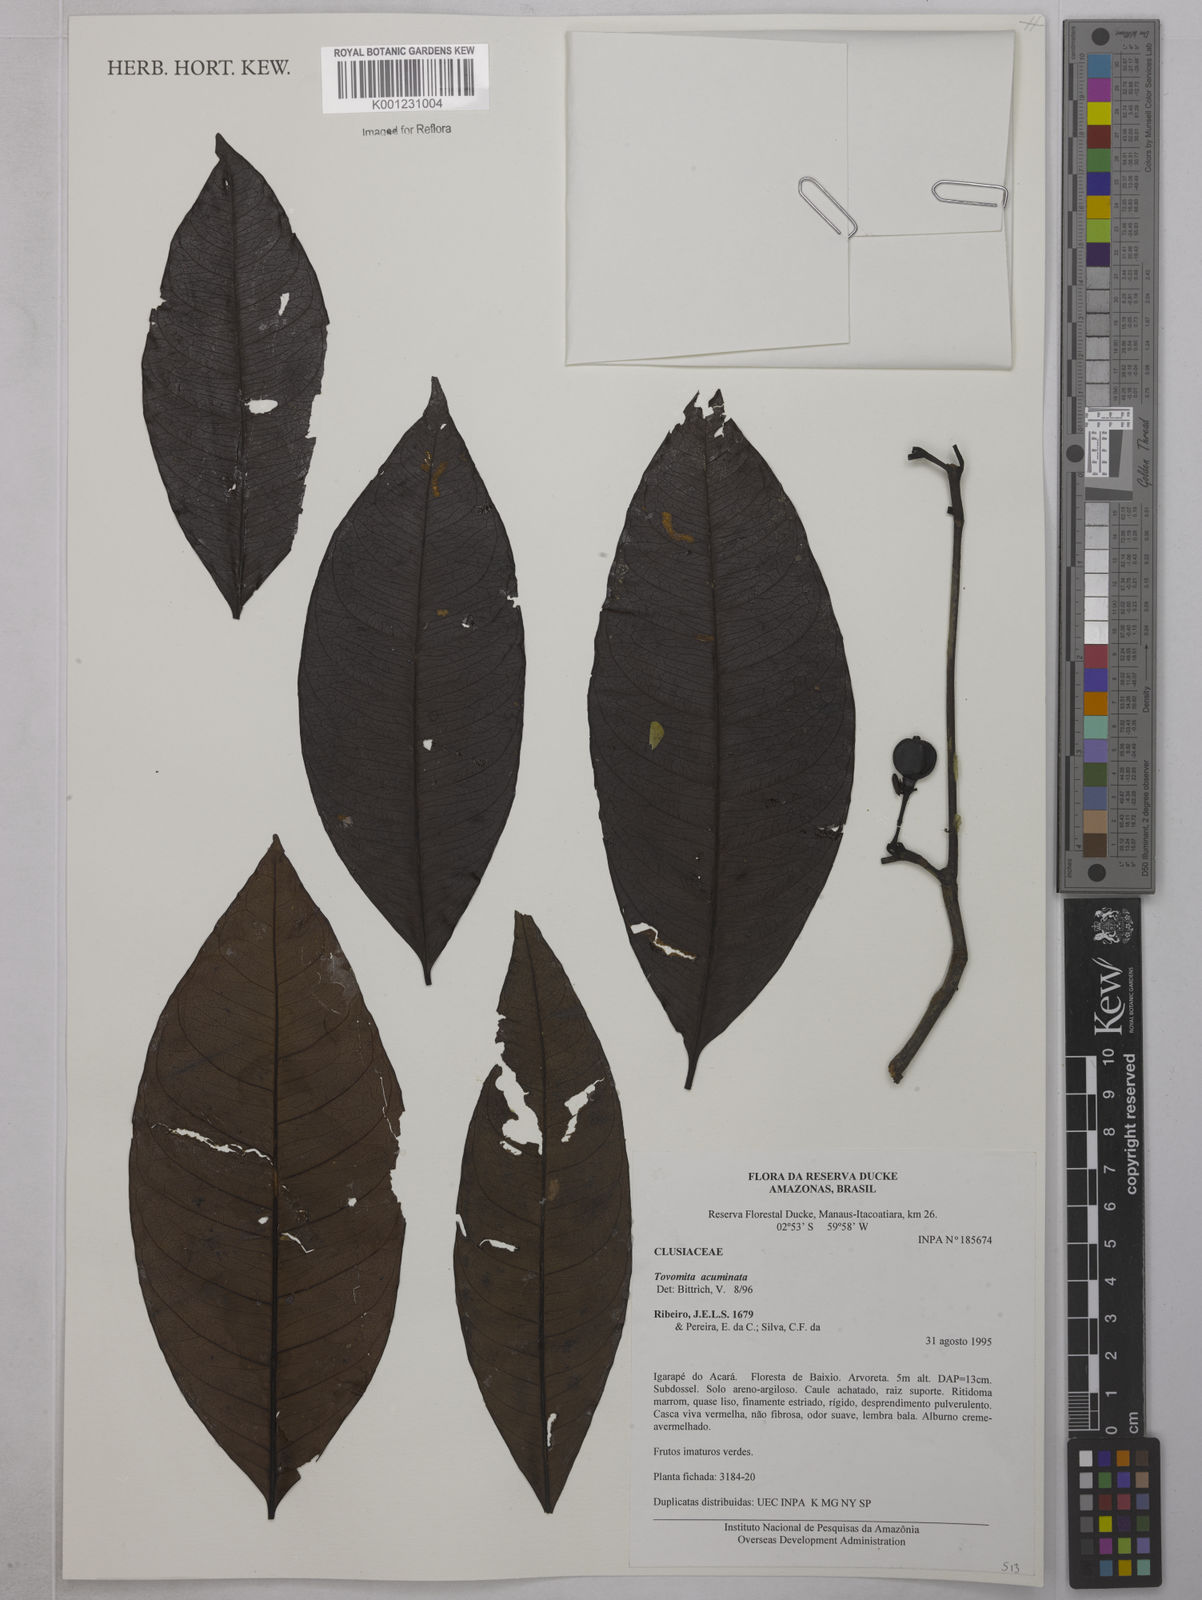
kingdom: Plantae
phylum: Tracheophyta
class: Magnoliopsida
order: Malpighiales
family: Clusiaceae
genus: Tovomita
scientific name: Tovomita gracilipes
